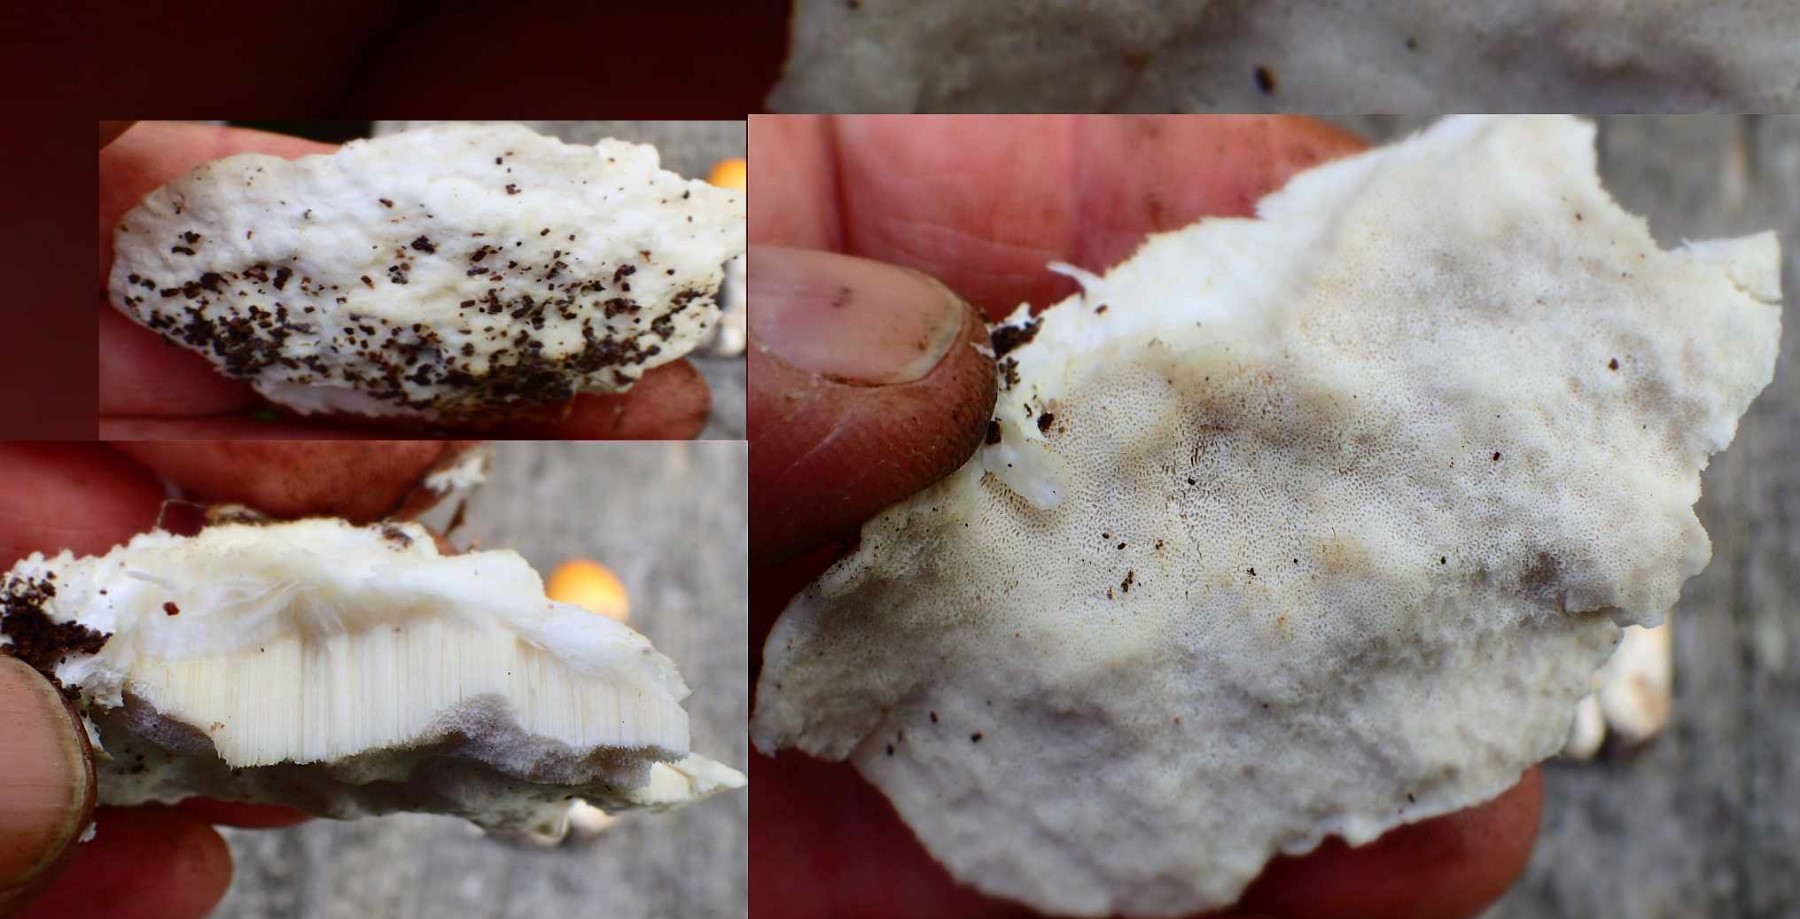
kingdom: Fungi
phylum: Basidiomycota
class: Agaricomycetes
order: Polyporales
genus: Amaropostia
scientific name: Amaropostia stiptica
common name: bitter kødporesvamp
